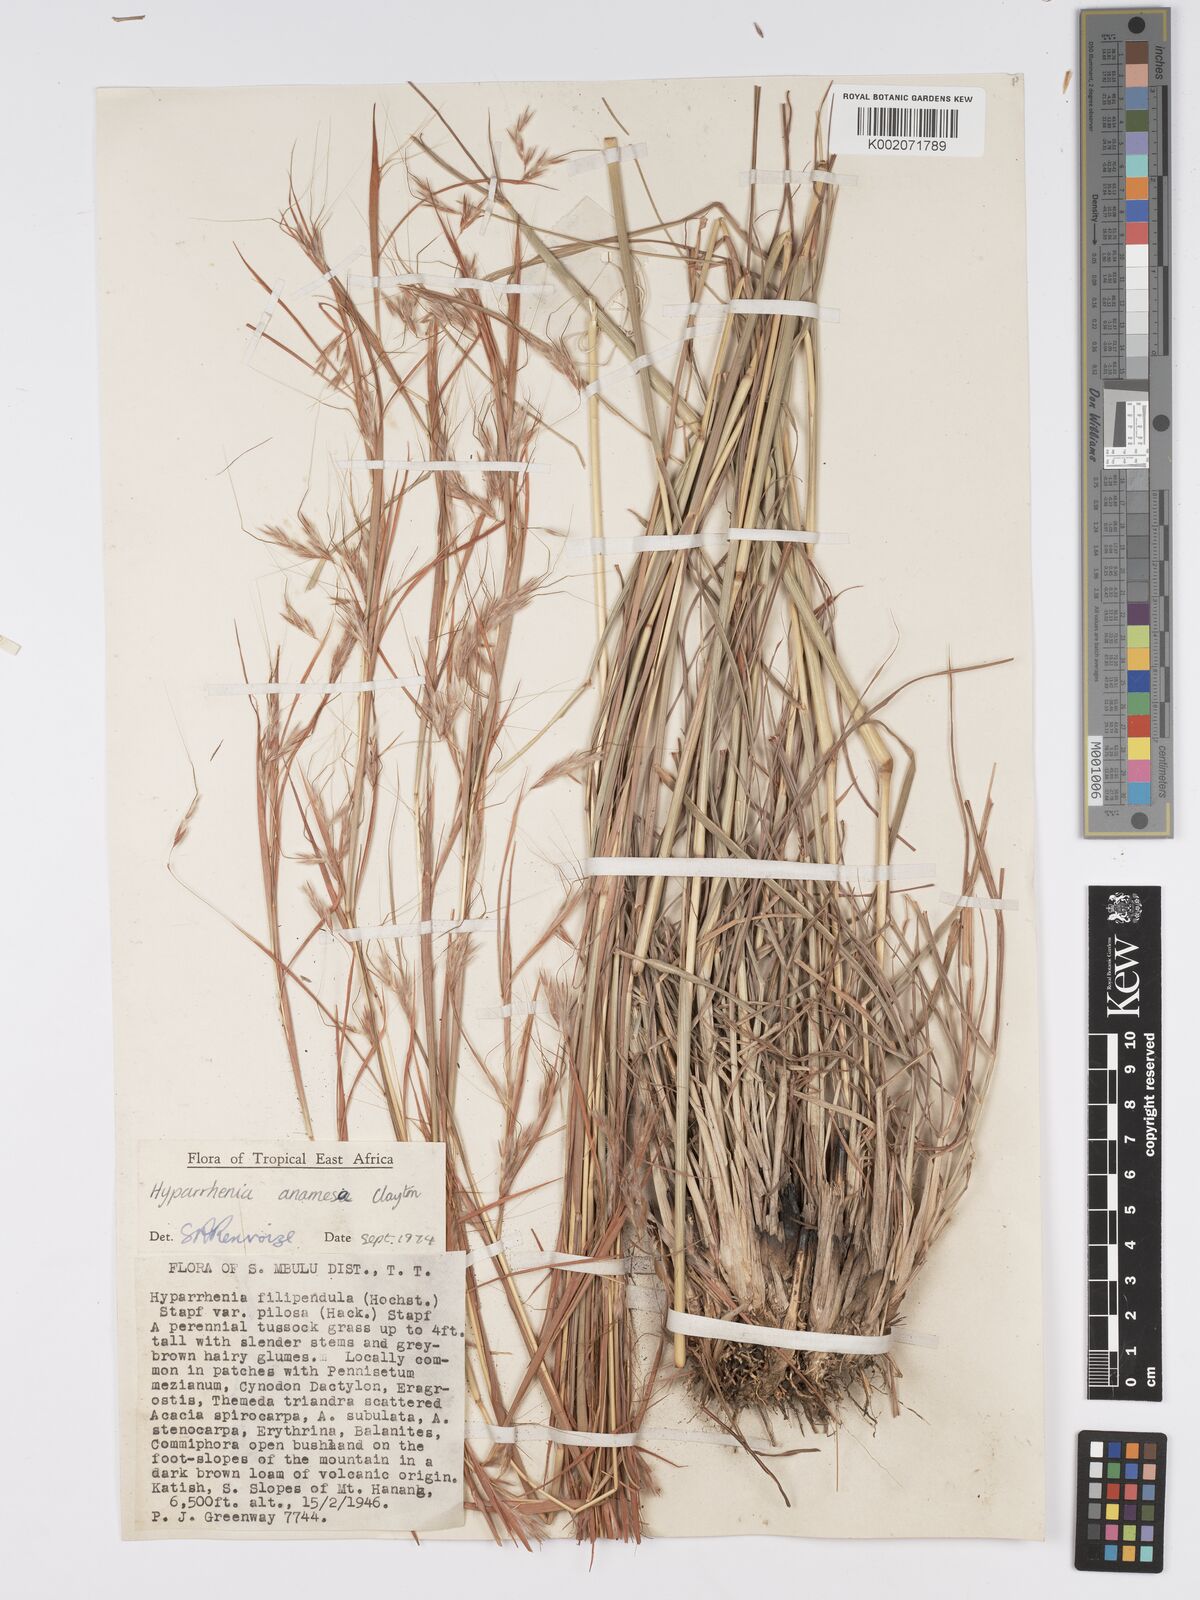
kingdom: Plantae
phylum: Tracheophyta
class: Liliopsida
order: Poales
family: Poaceae
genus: Hyparrhenia
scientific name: Hyparrhenia anamesa
